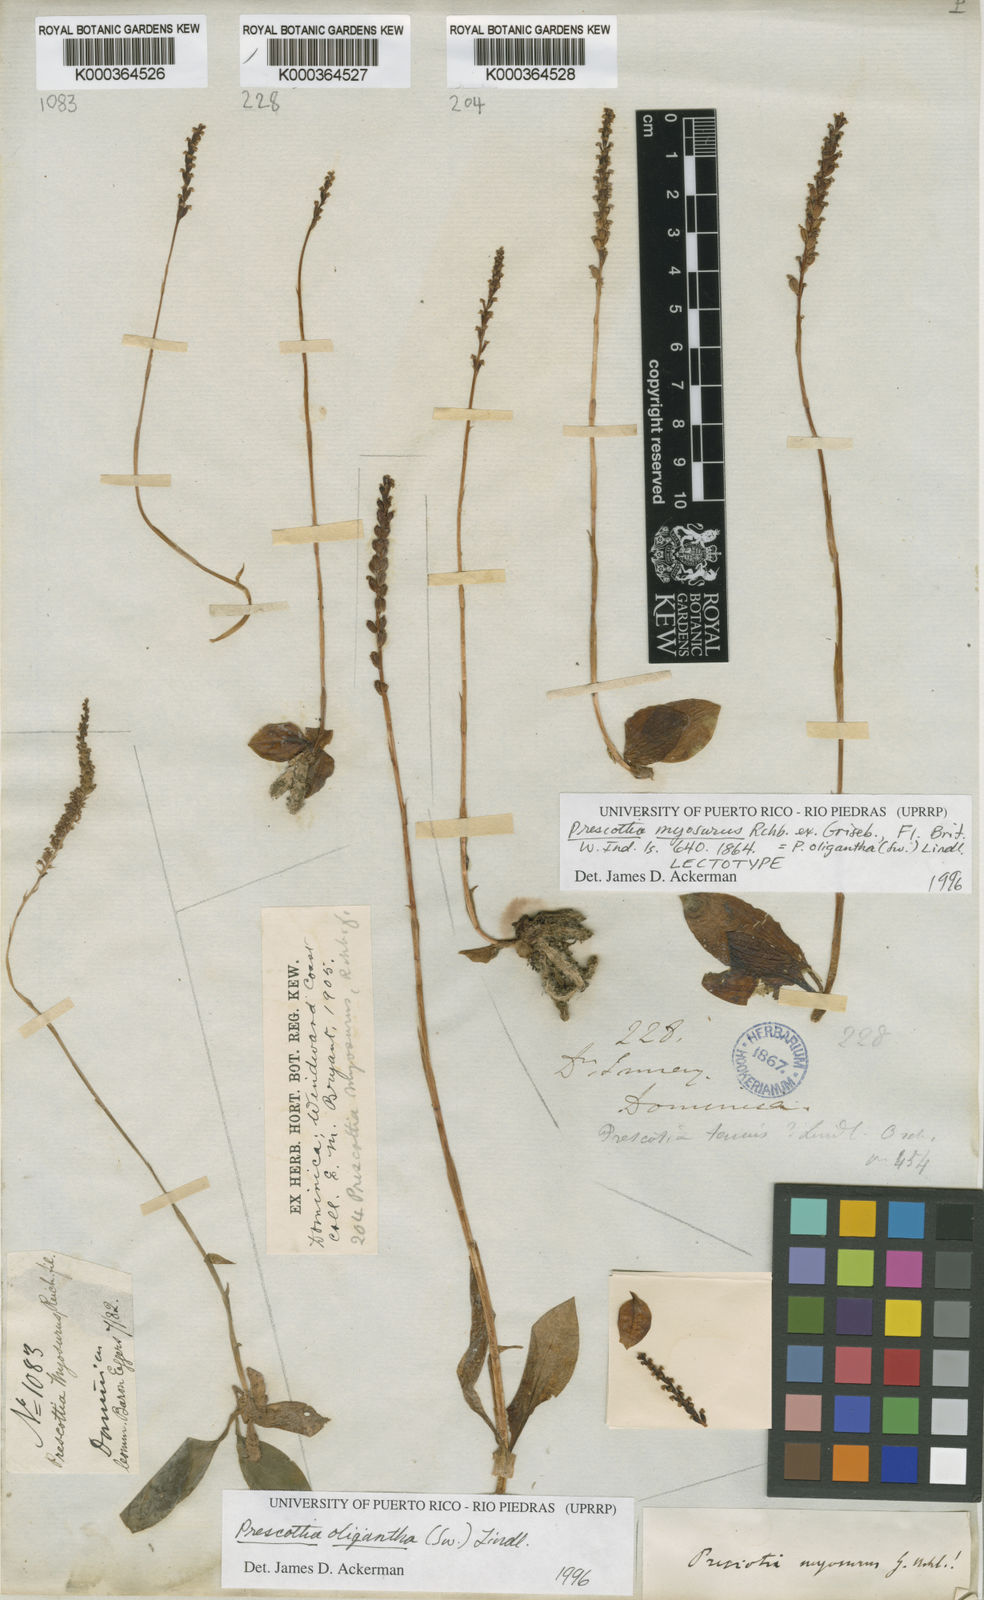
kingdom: Plantae
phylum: Tracheophyta
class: Liliopsida
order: Asparagales
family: Orchidaceae
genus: Prescottia
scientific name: Prescottia oligantha
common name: Small prescott orchid
